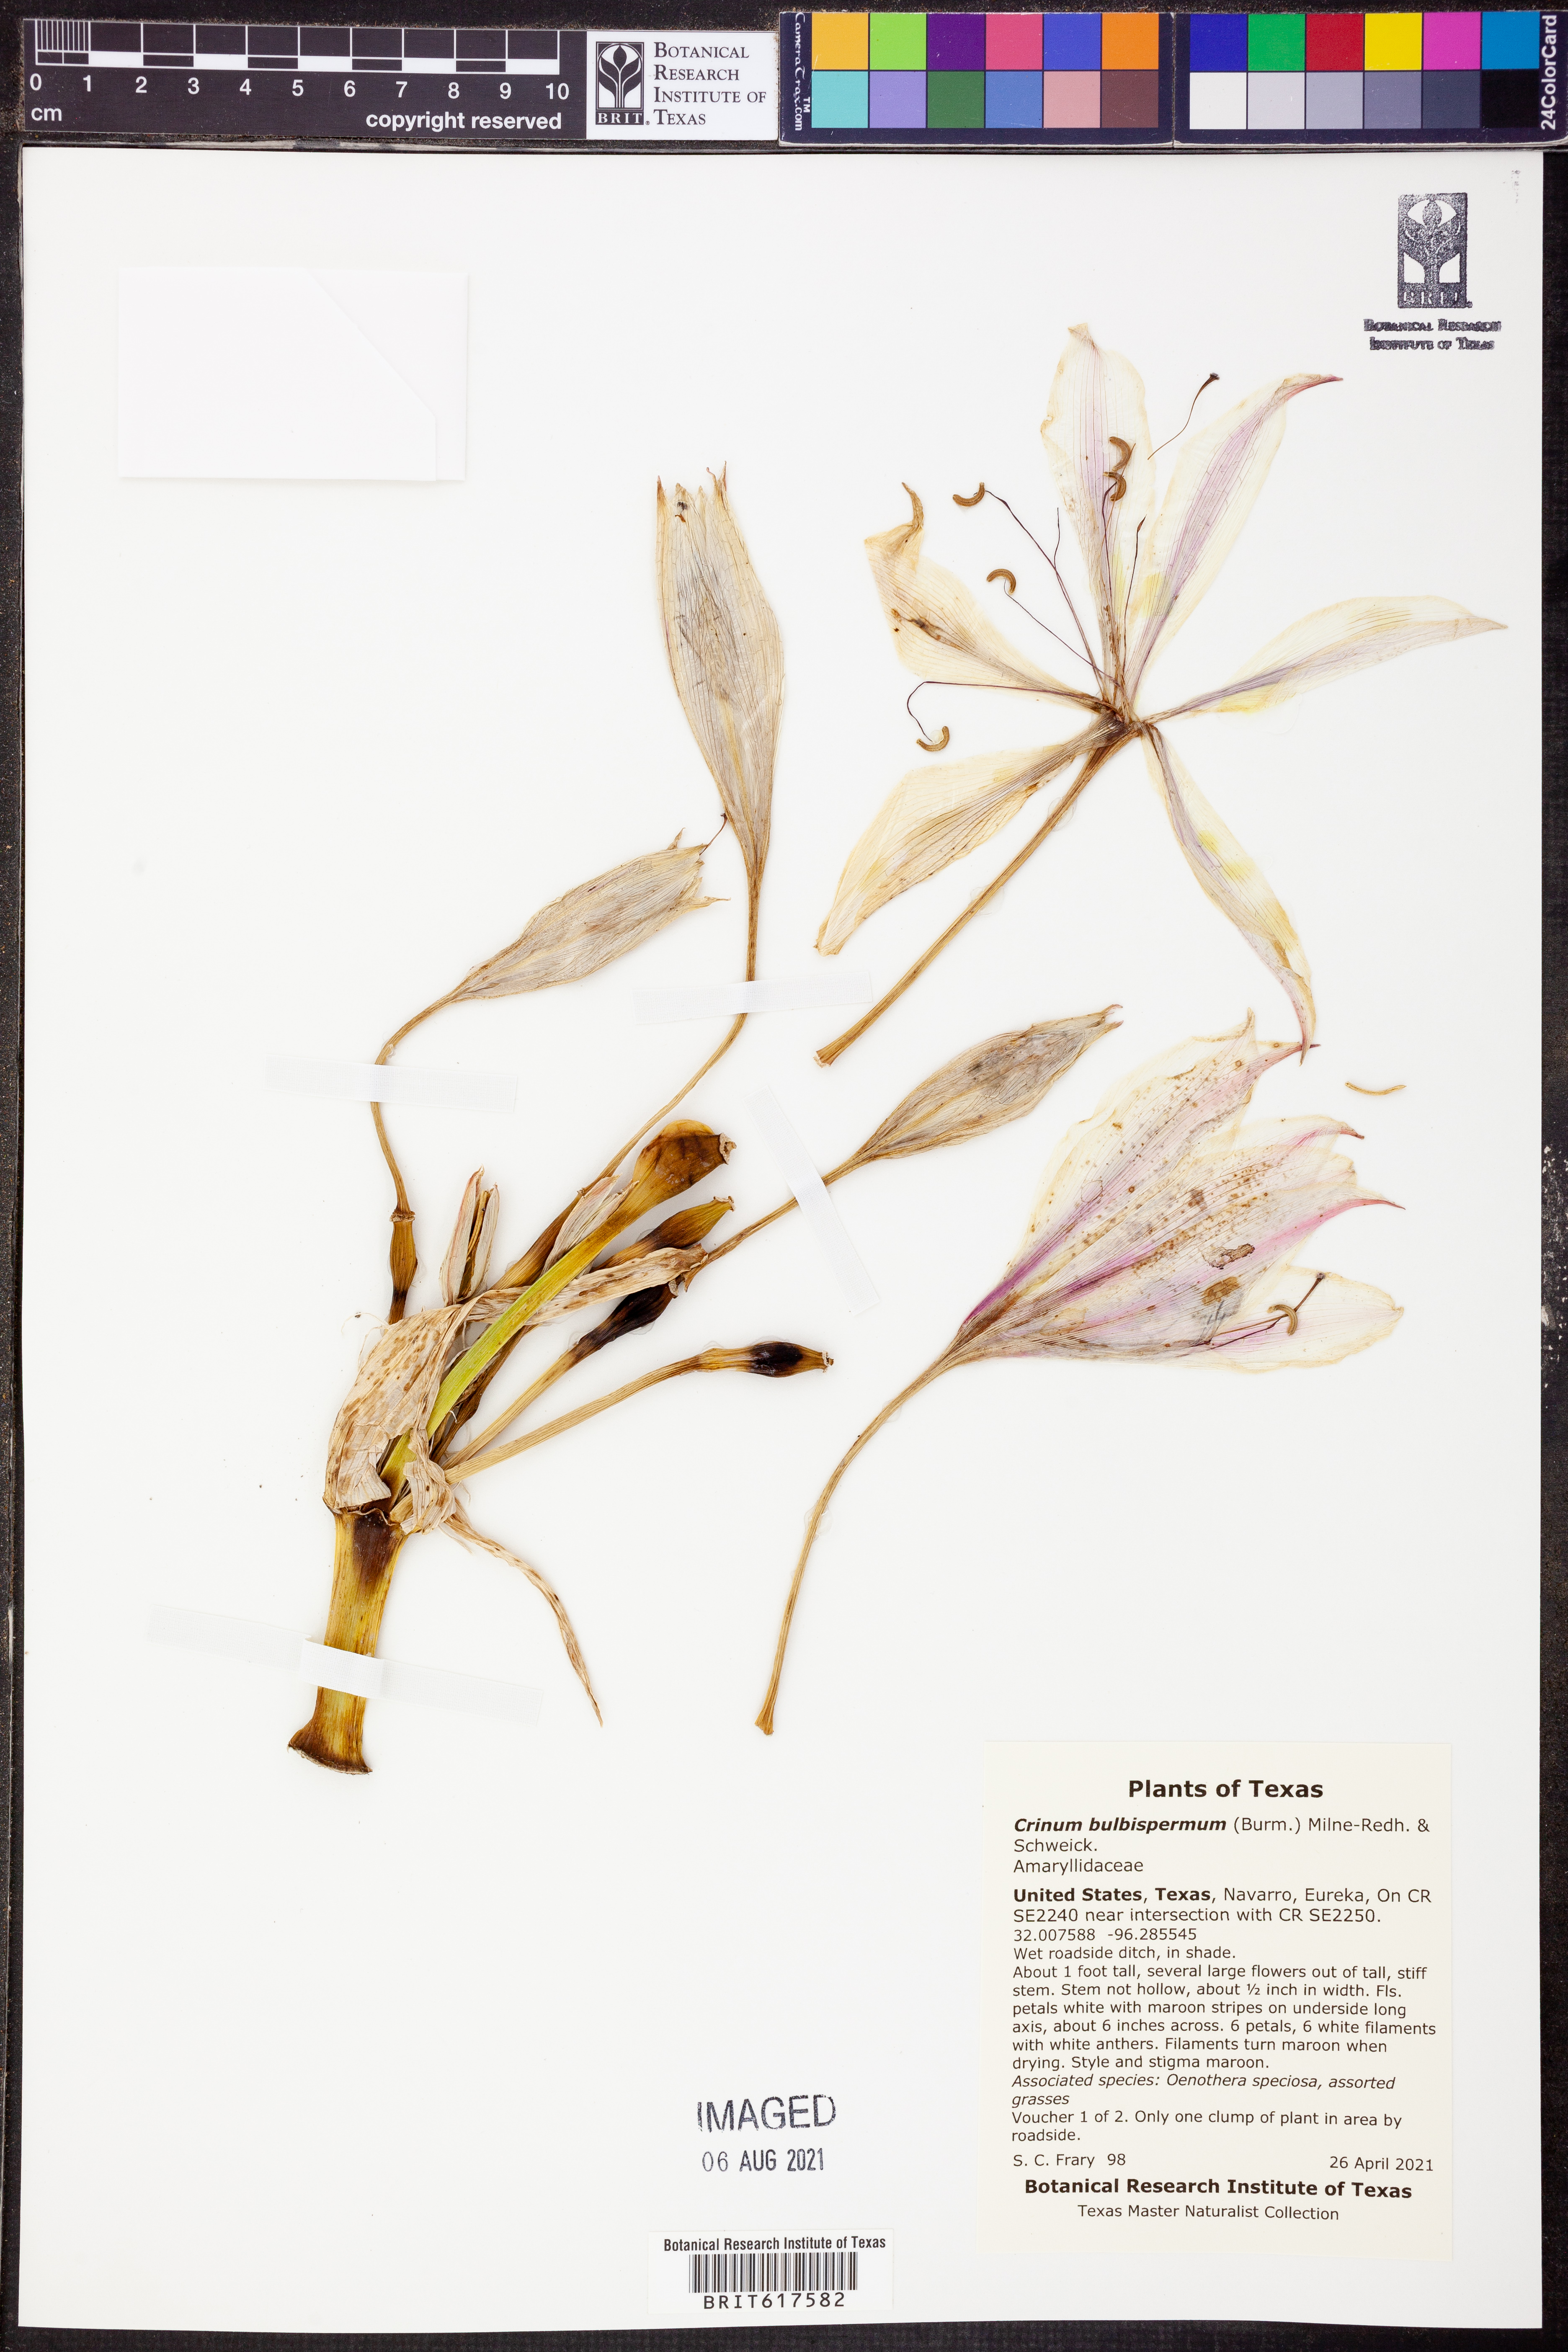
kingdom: Plantae
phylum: Tracheophyta
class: Liliopsida
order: Asparagales
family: Amaryllidaceae
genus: Crinum
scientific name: Crinum bulbispermum
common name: Hardy swamplily
